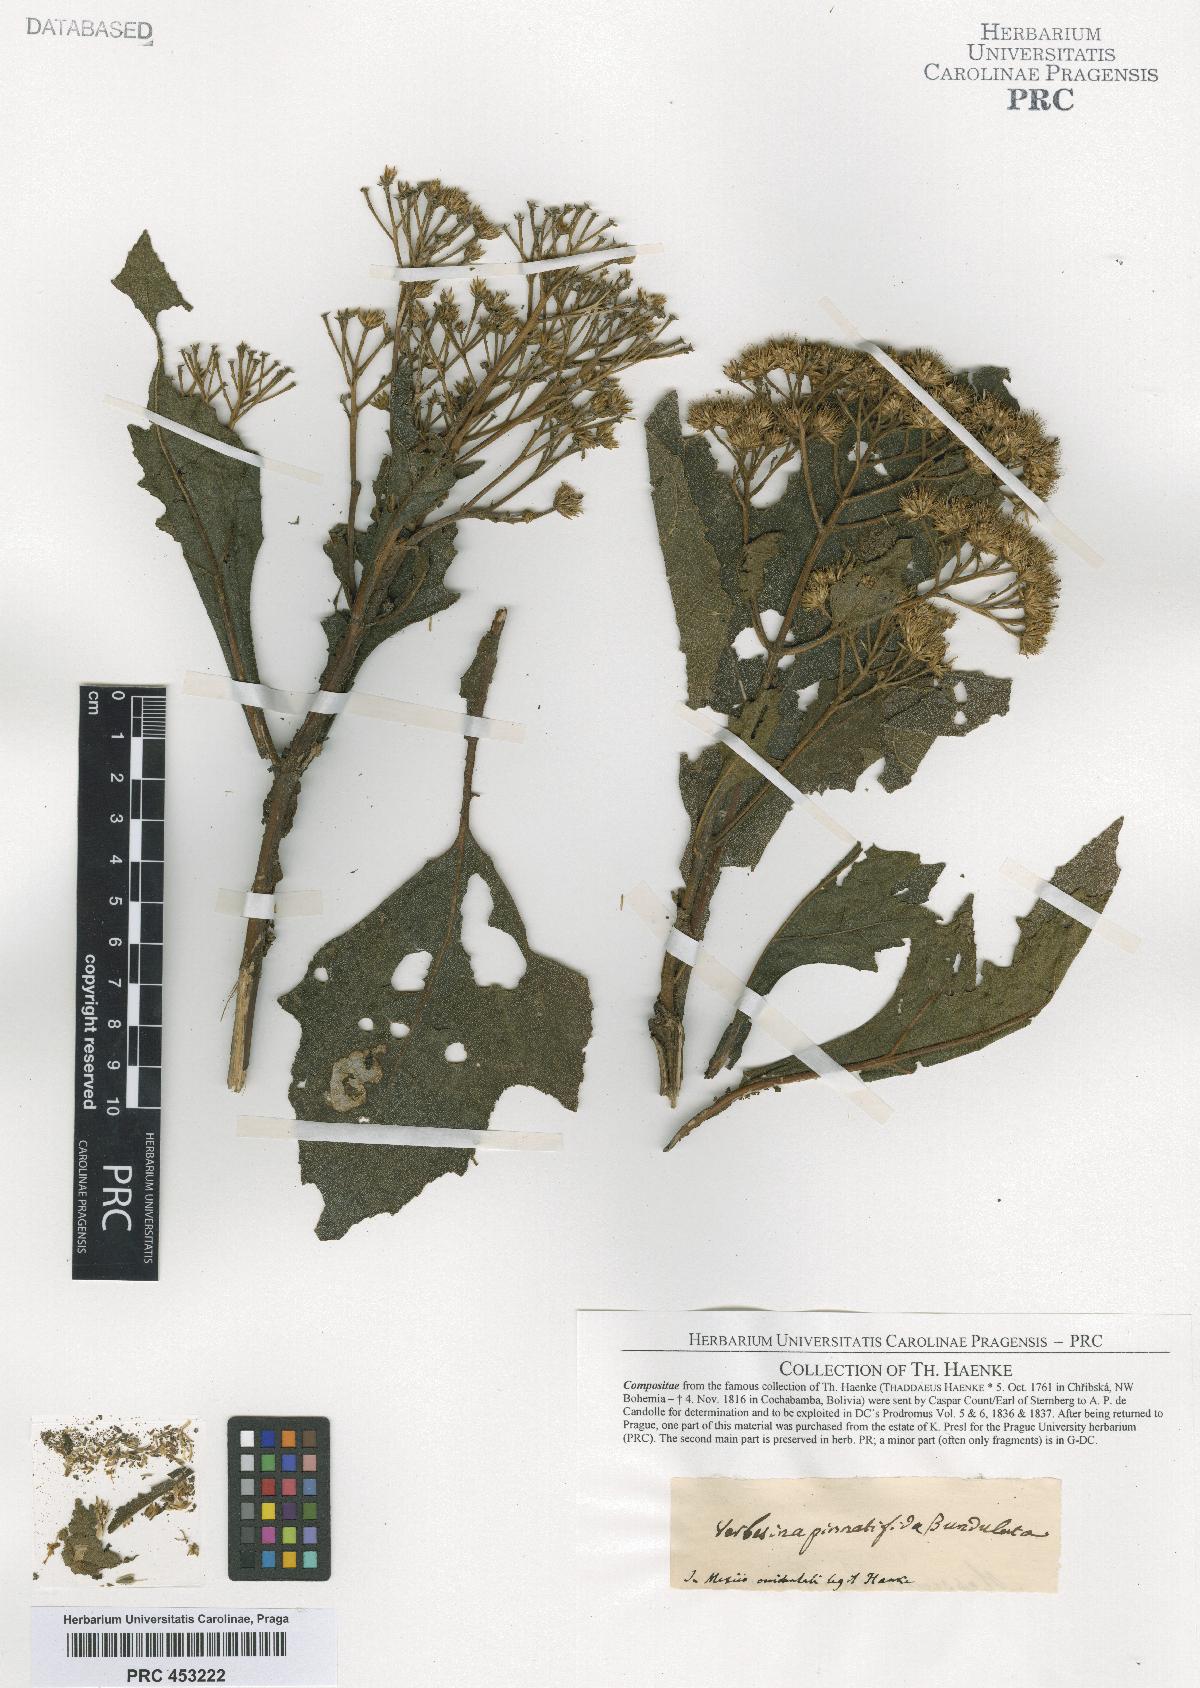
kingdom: Plantae
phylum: Tracheophyta
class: Magnoliopsida
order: Asterales
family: Asteraceae
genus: Verbesina
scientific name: Verbesina gigantea
